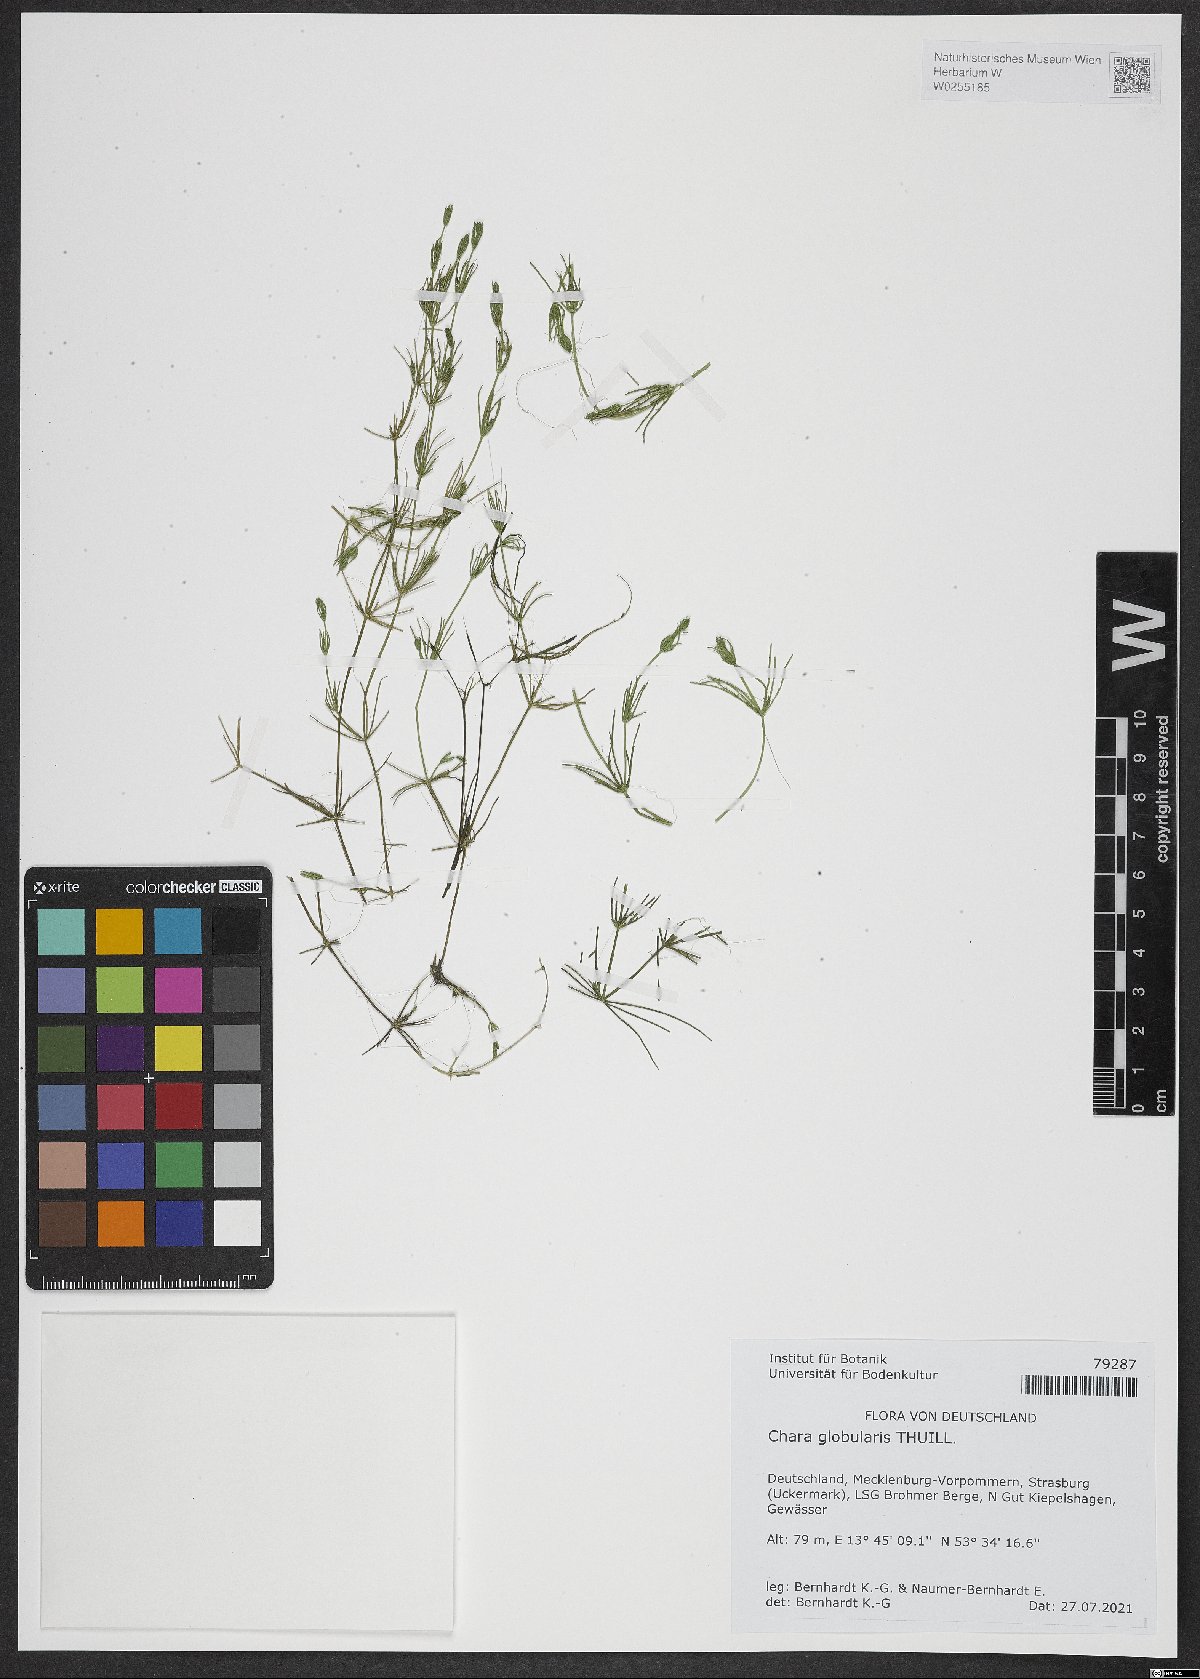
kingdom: Plantae
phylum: Charophyta
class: Charophyceae
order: Charales
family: Characeae
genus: Chara
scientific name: Chara globularis
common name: Fragile stonewort
